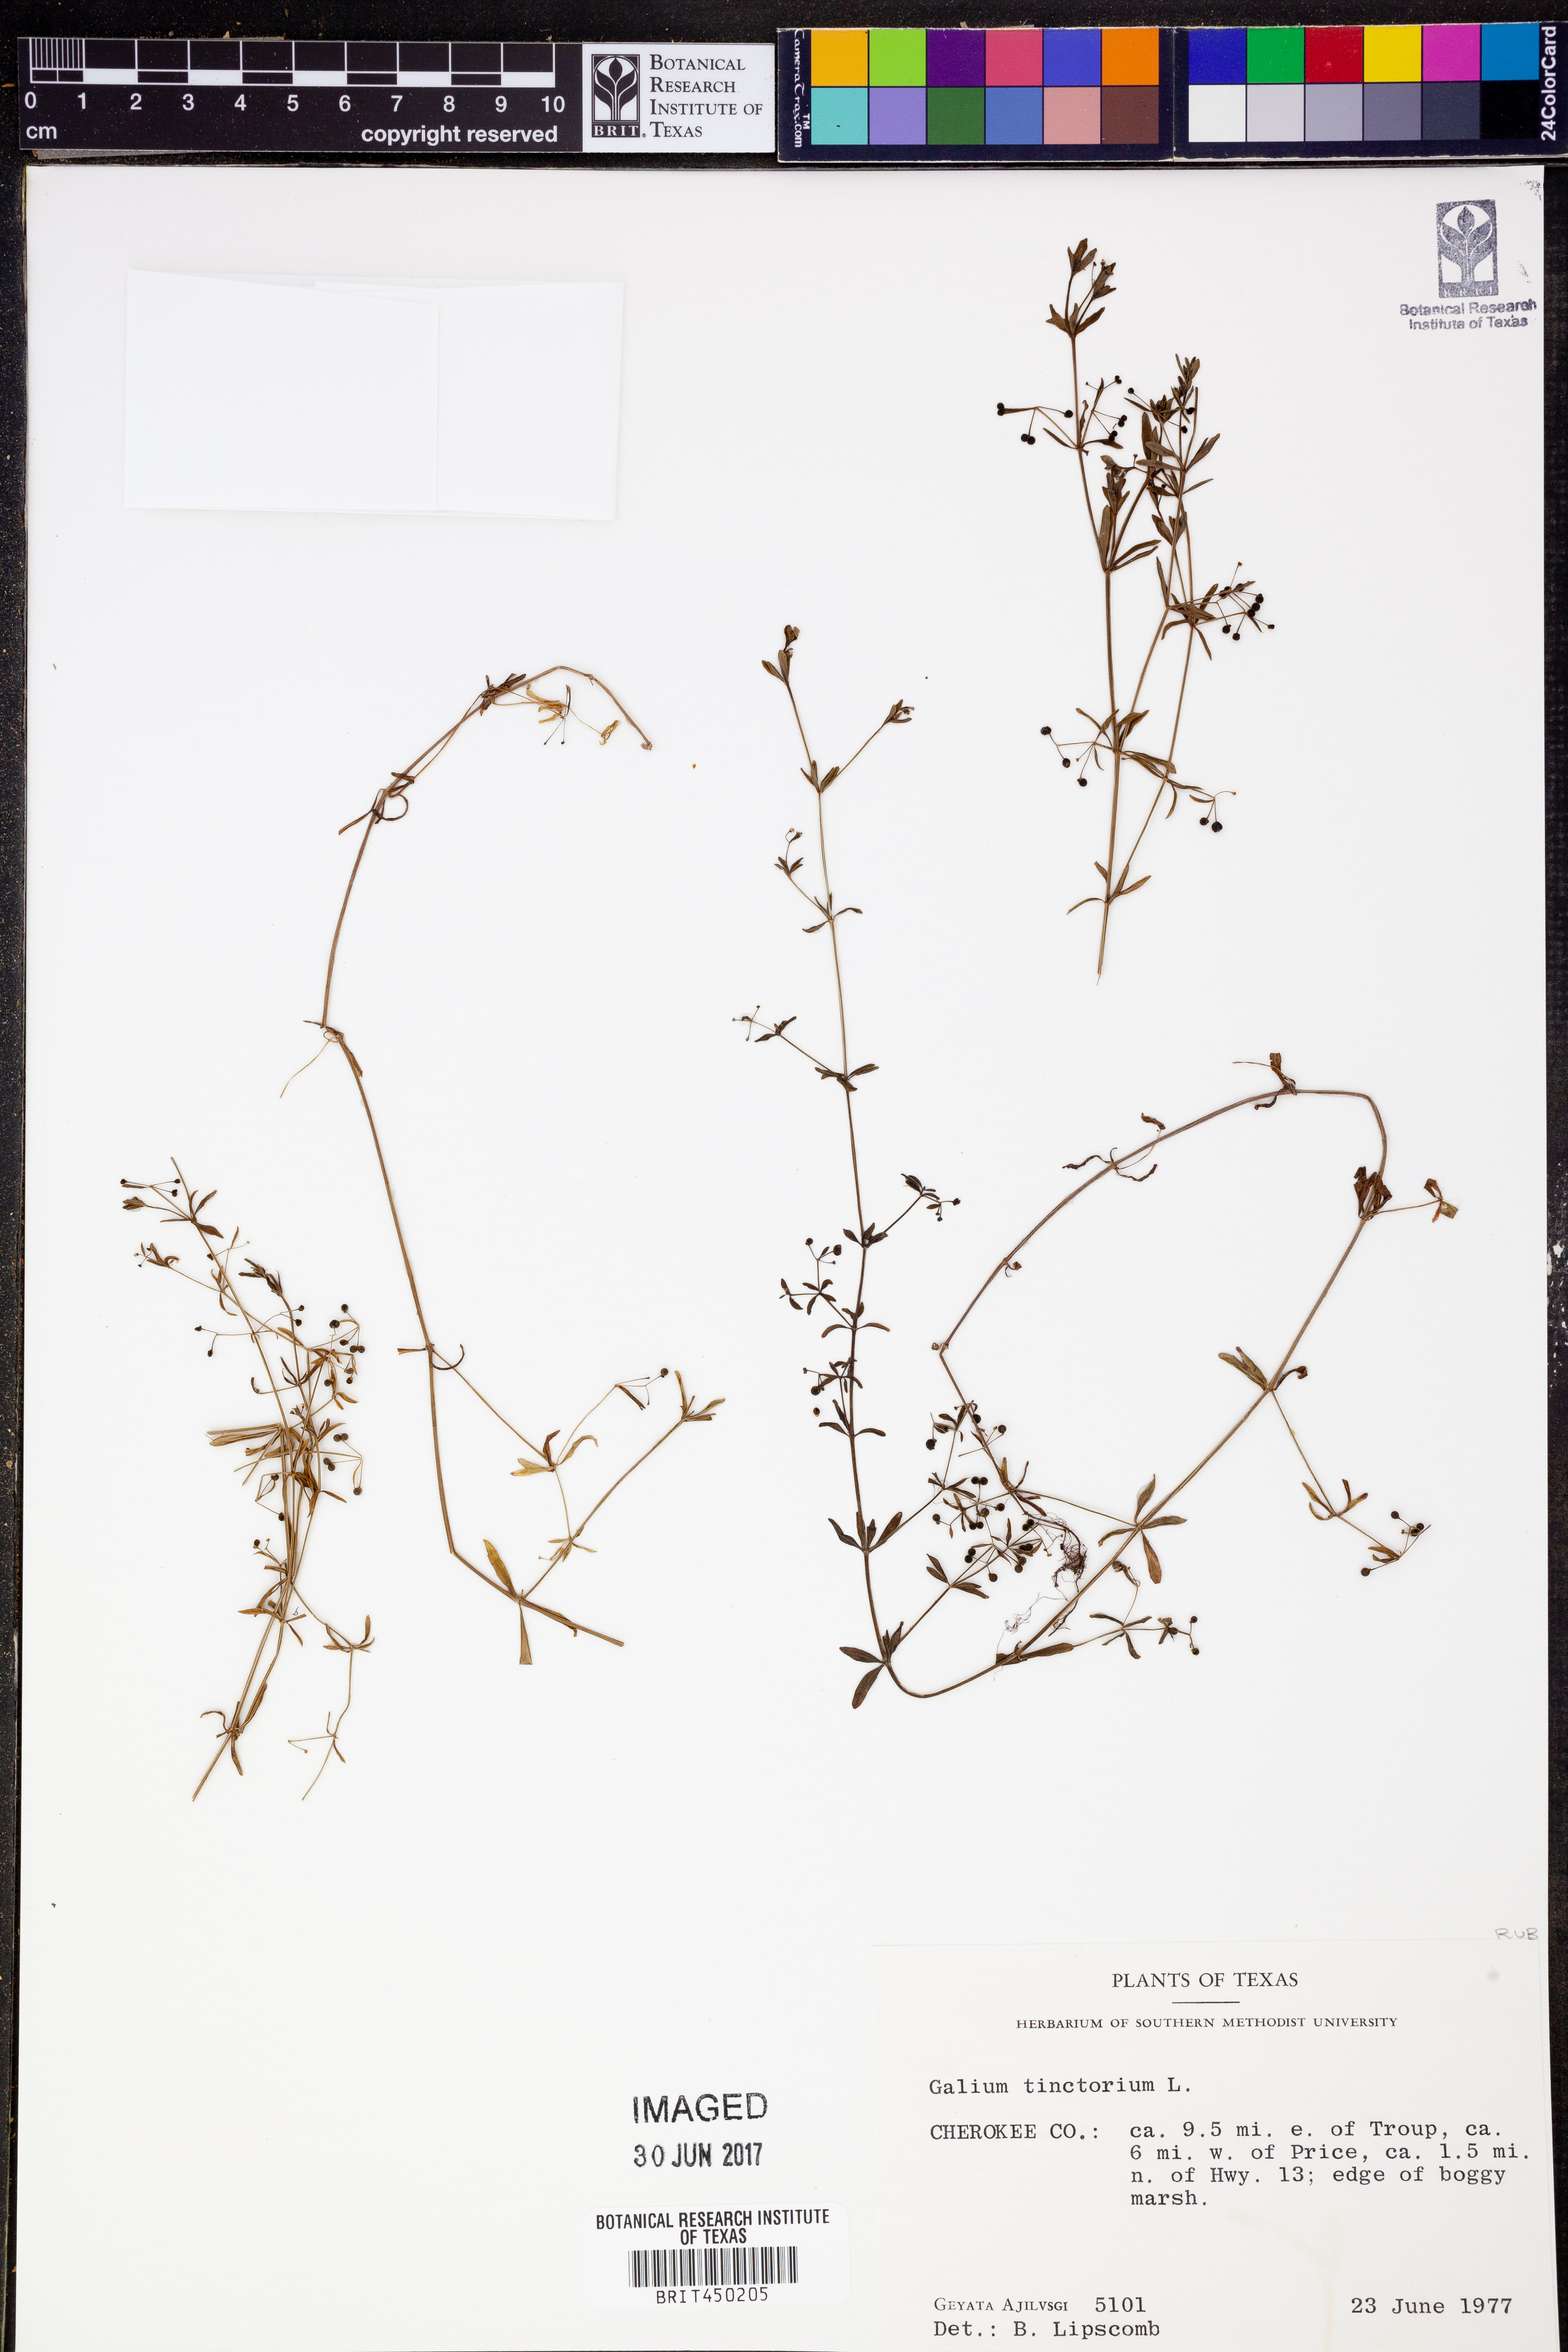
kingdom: Plantae
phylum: Tracheophyta
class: Magnoliopsida
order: Gentianales
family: Rubiaceae
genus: Asperula
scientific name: Asperula tinctoria
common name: Dyer's woodruff
